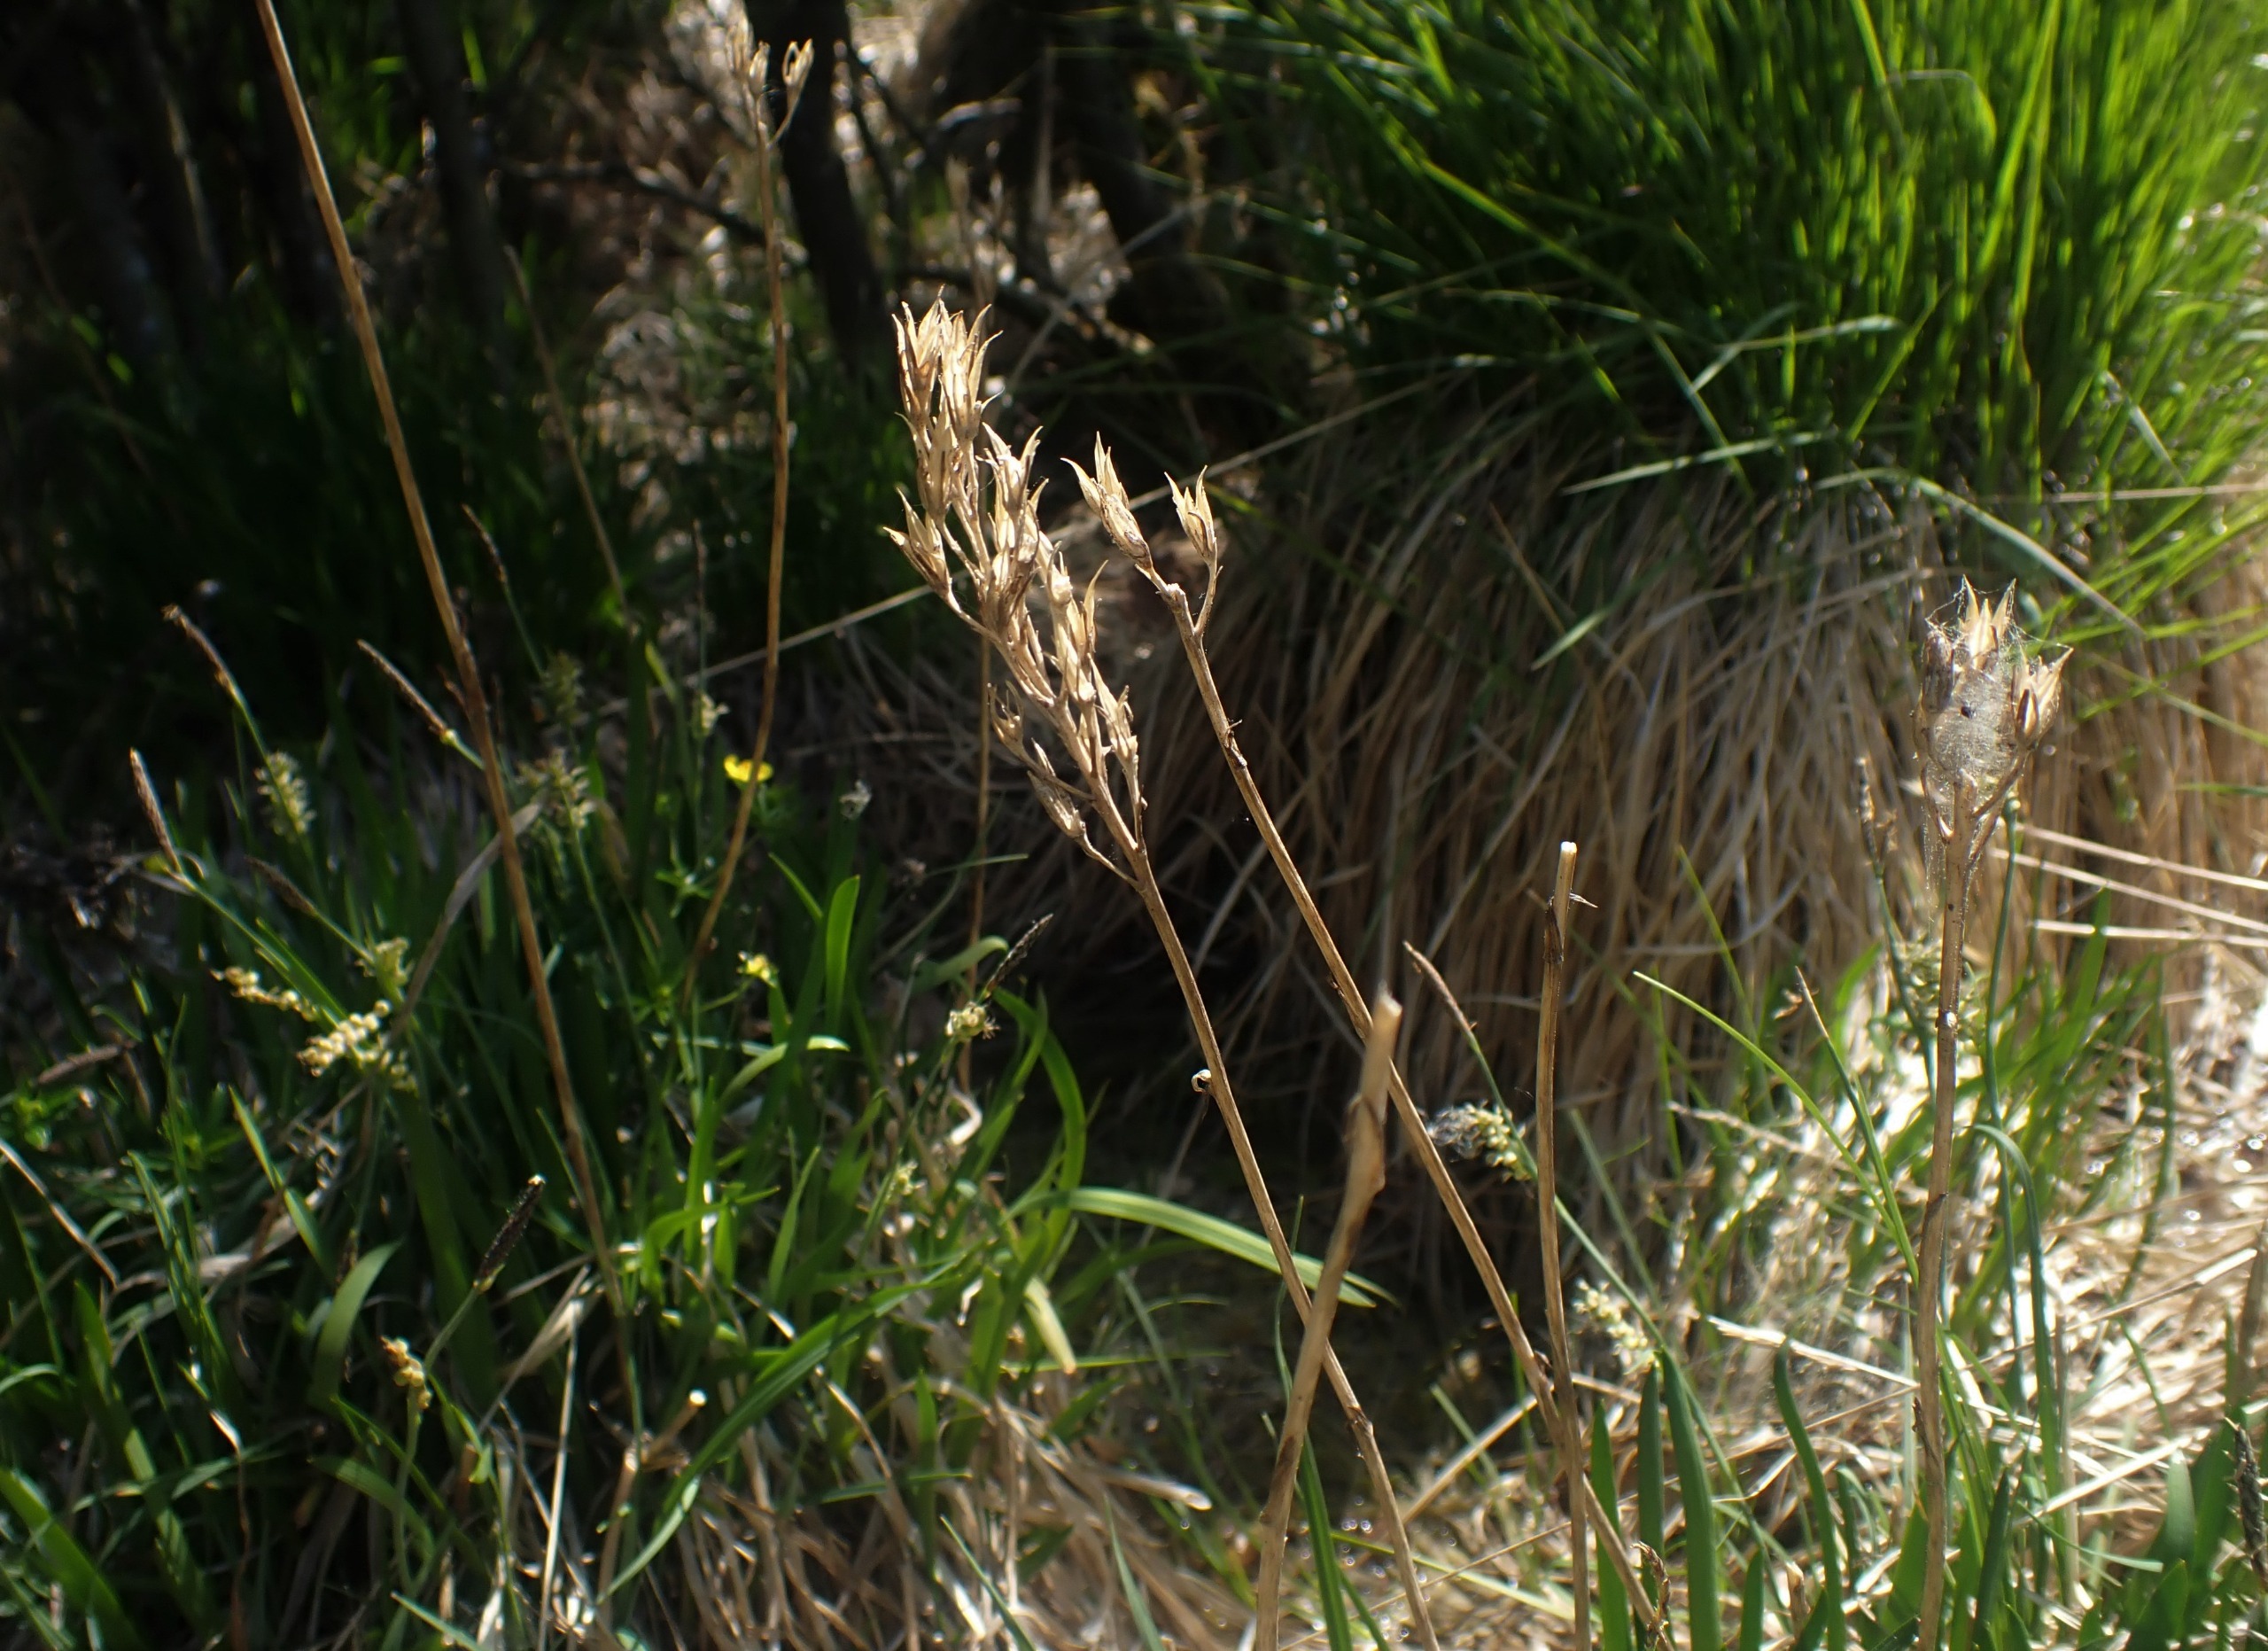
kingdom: Plantae
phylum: Tracheophyta
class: Liliopsida
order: Dioscoreales
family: Nartheciaceae
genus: Narthecium
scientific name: Narthecium ossifragum
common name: Benbræk
